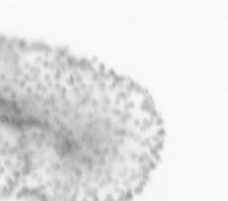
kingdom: Animalia
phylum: Chordata
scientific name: Chordata
